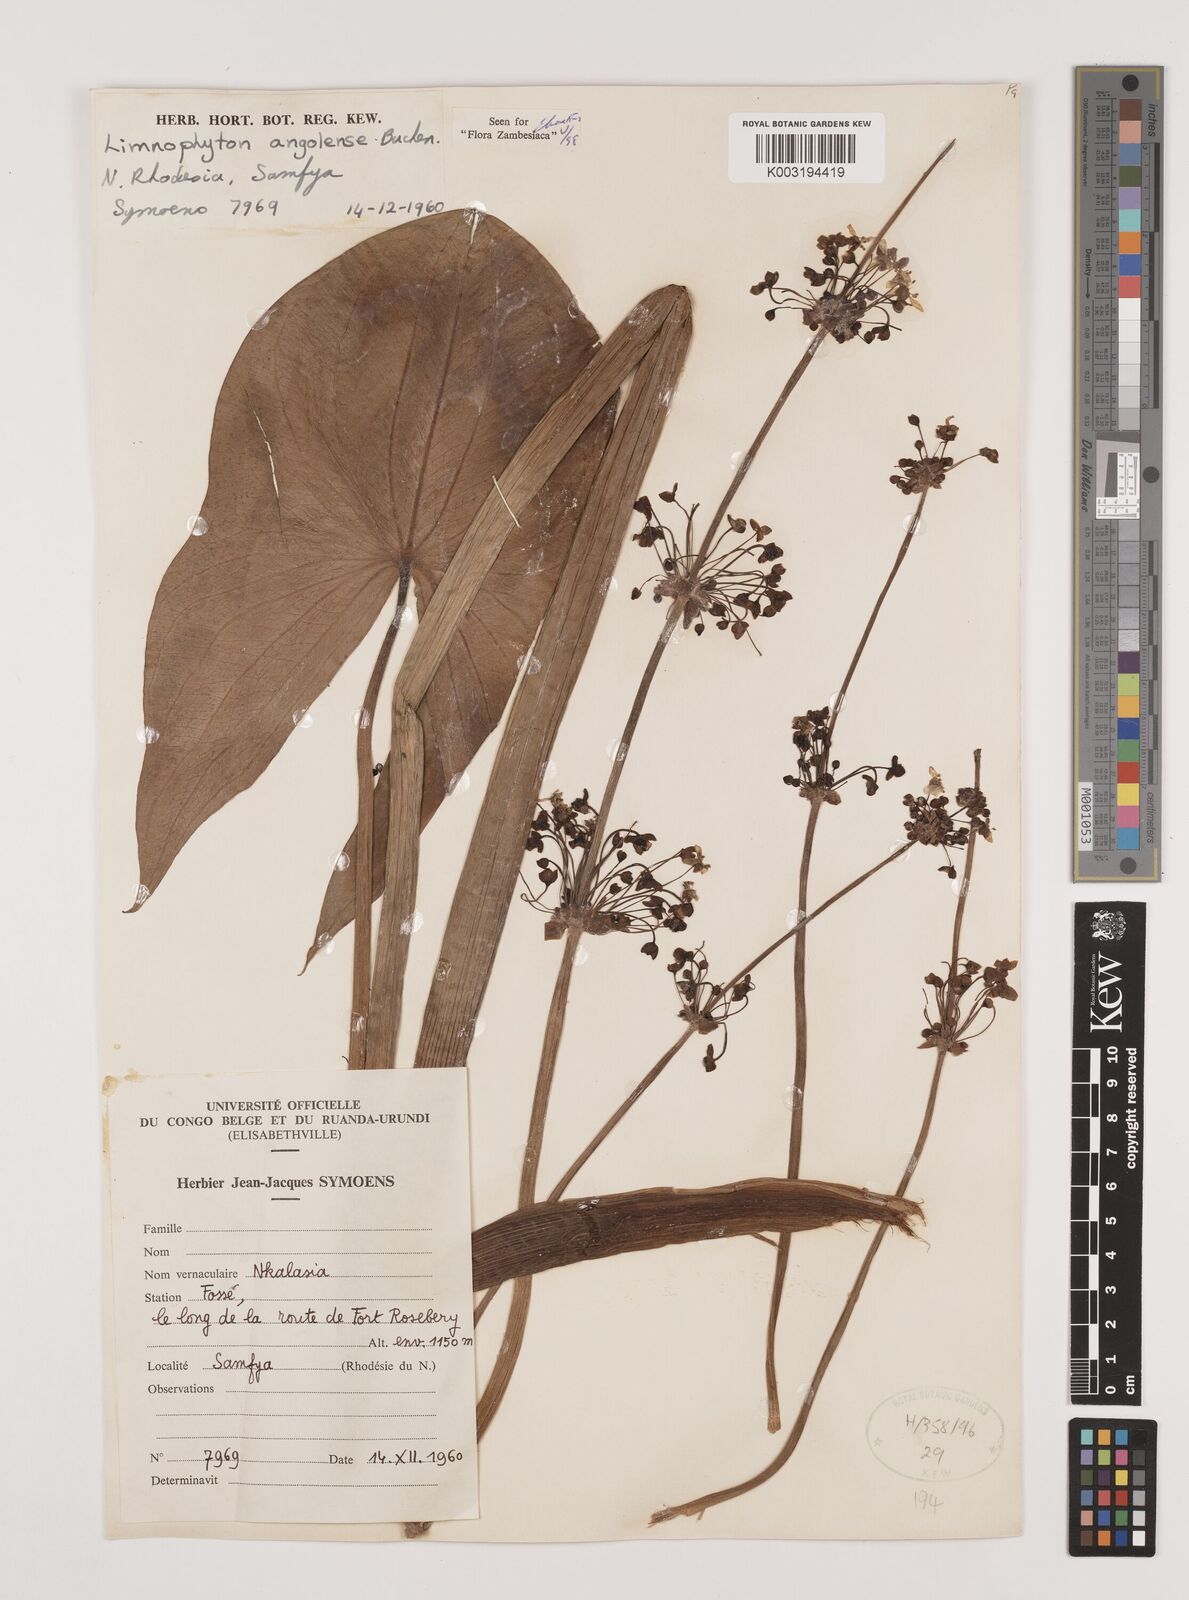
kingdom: Plantae
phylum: Tracheophyta
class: Liliopsida
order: Alismatales
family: Alismataceae
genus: Limnophyton
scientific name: Limnophyton angolense
